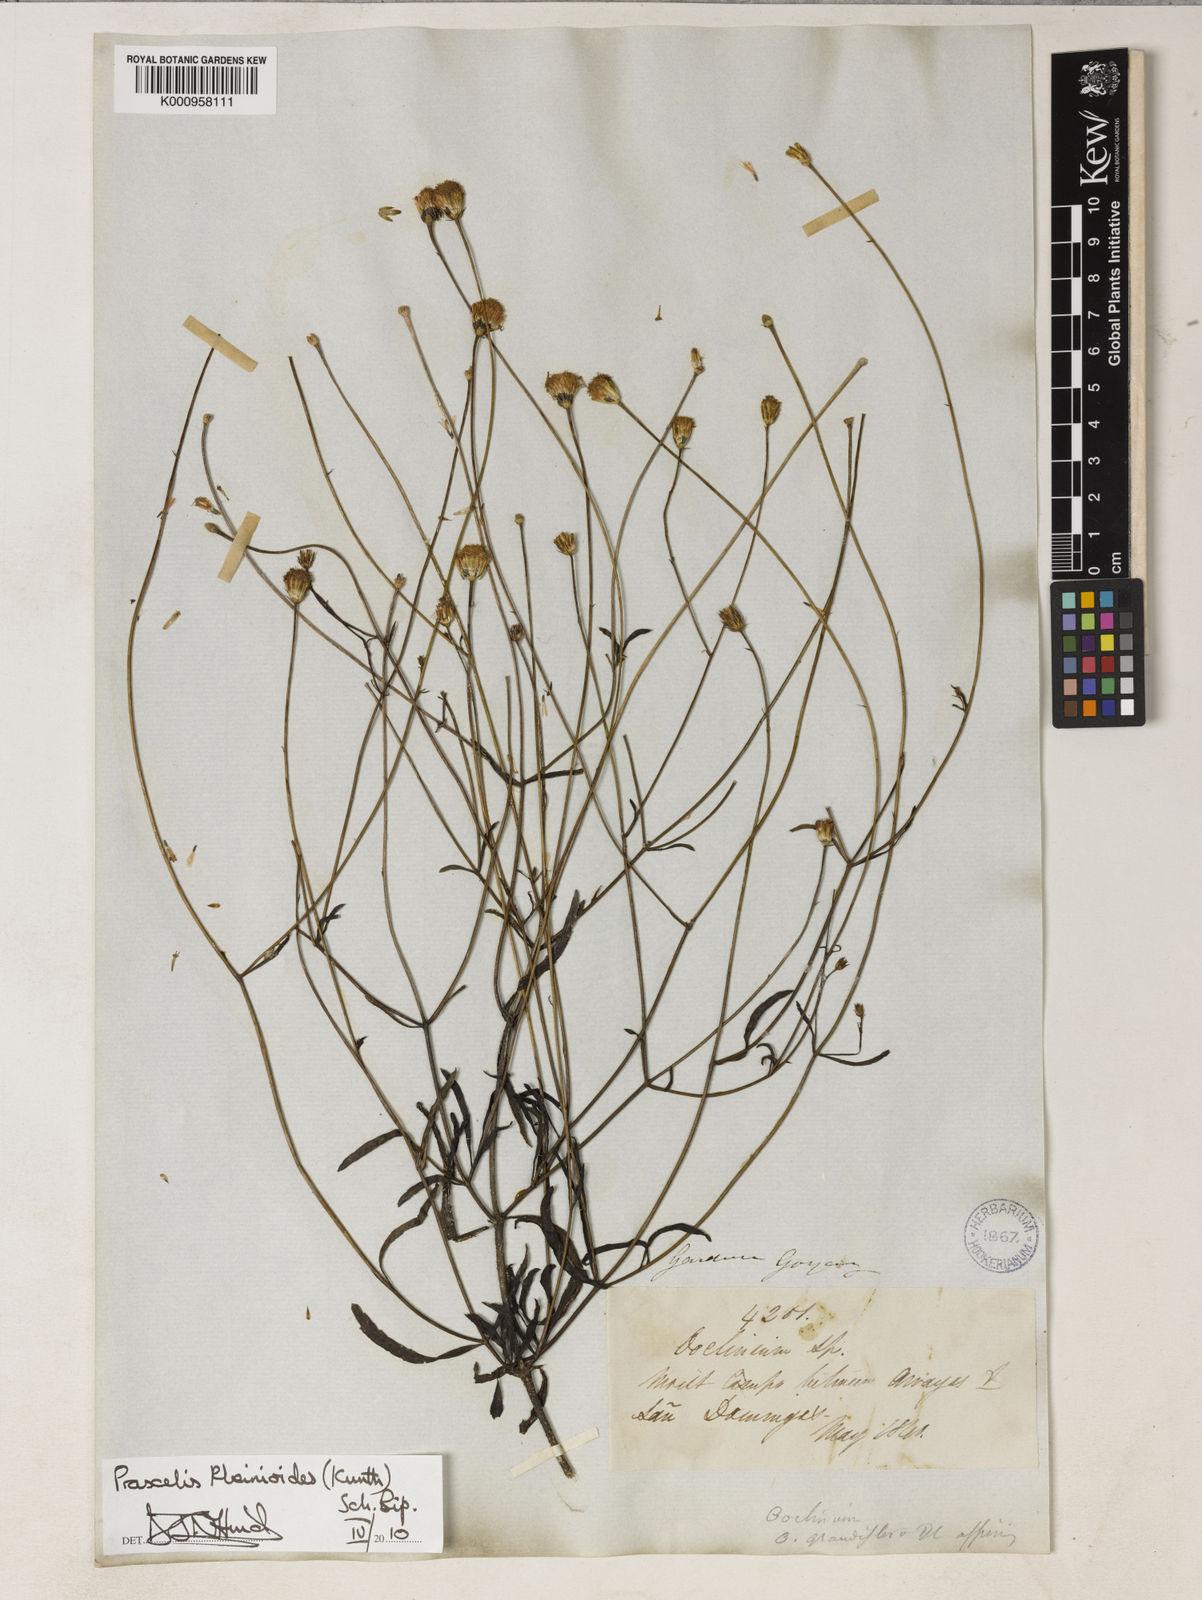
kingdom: Plantae
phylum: Tracheophyta
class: Magnoliopsida
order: Asterales
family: Asteraceae
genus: Praxelis
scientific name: Praxelis kleinioides
